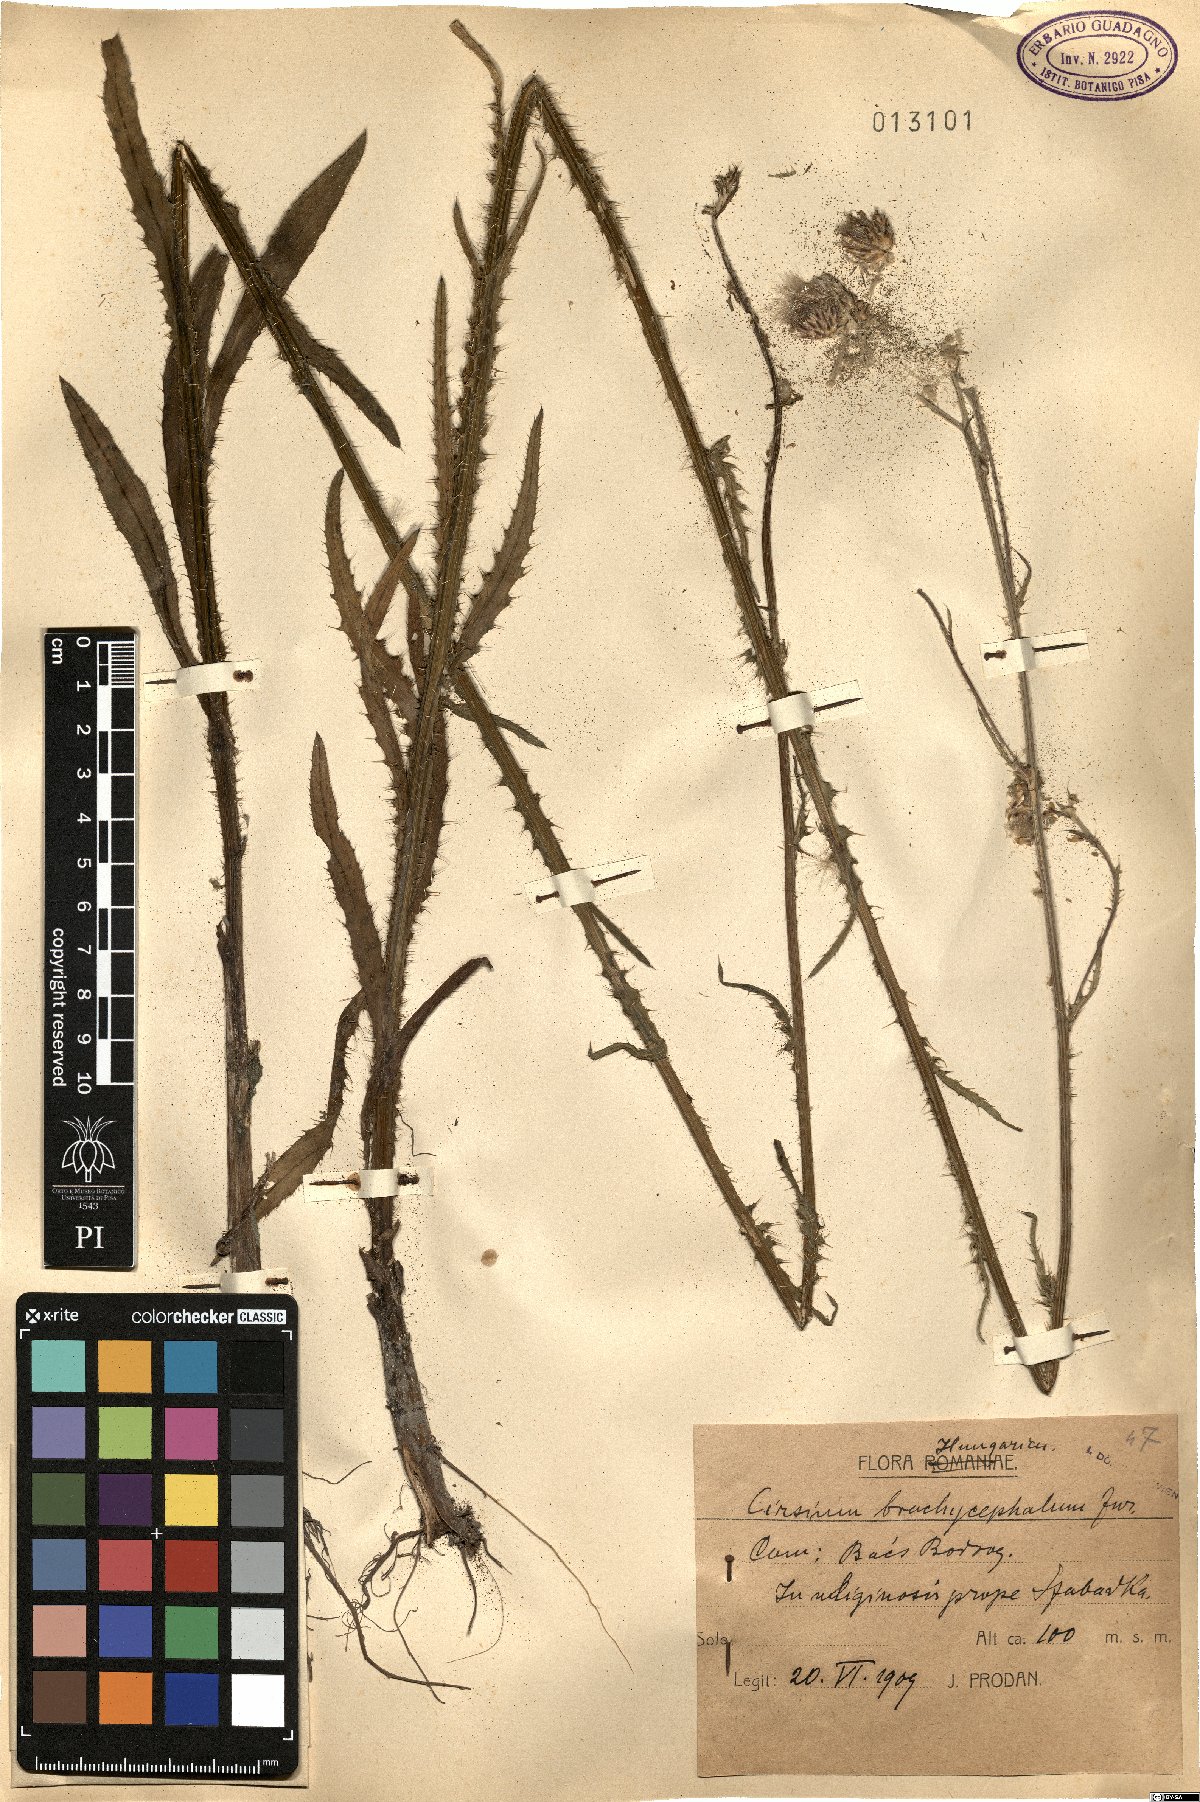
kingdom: Plantae
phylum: Tracheophyta
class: Magnoliopsida
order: Asterales
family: Asteraceae
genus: Cirsium
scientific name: Cirsium brachycephalum
